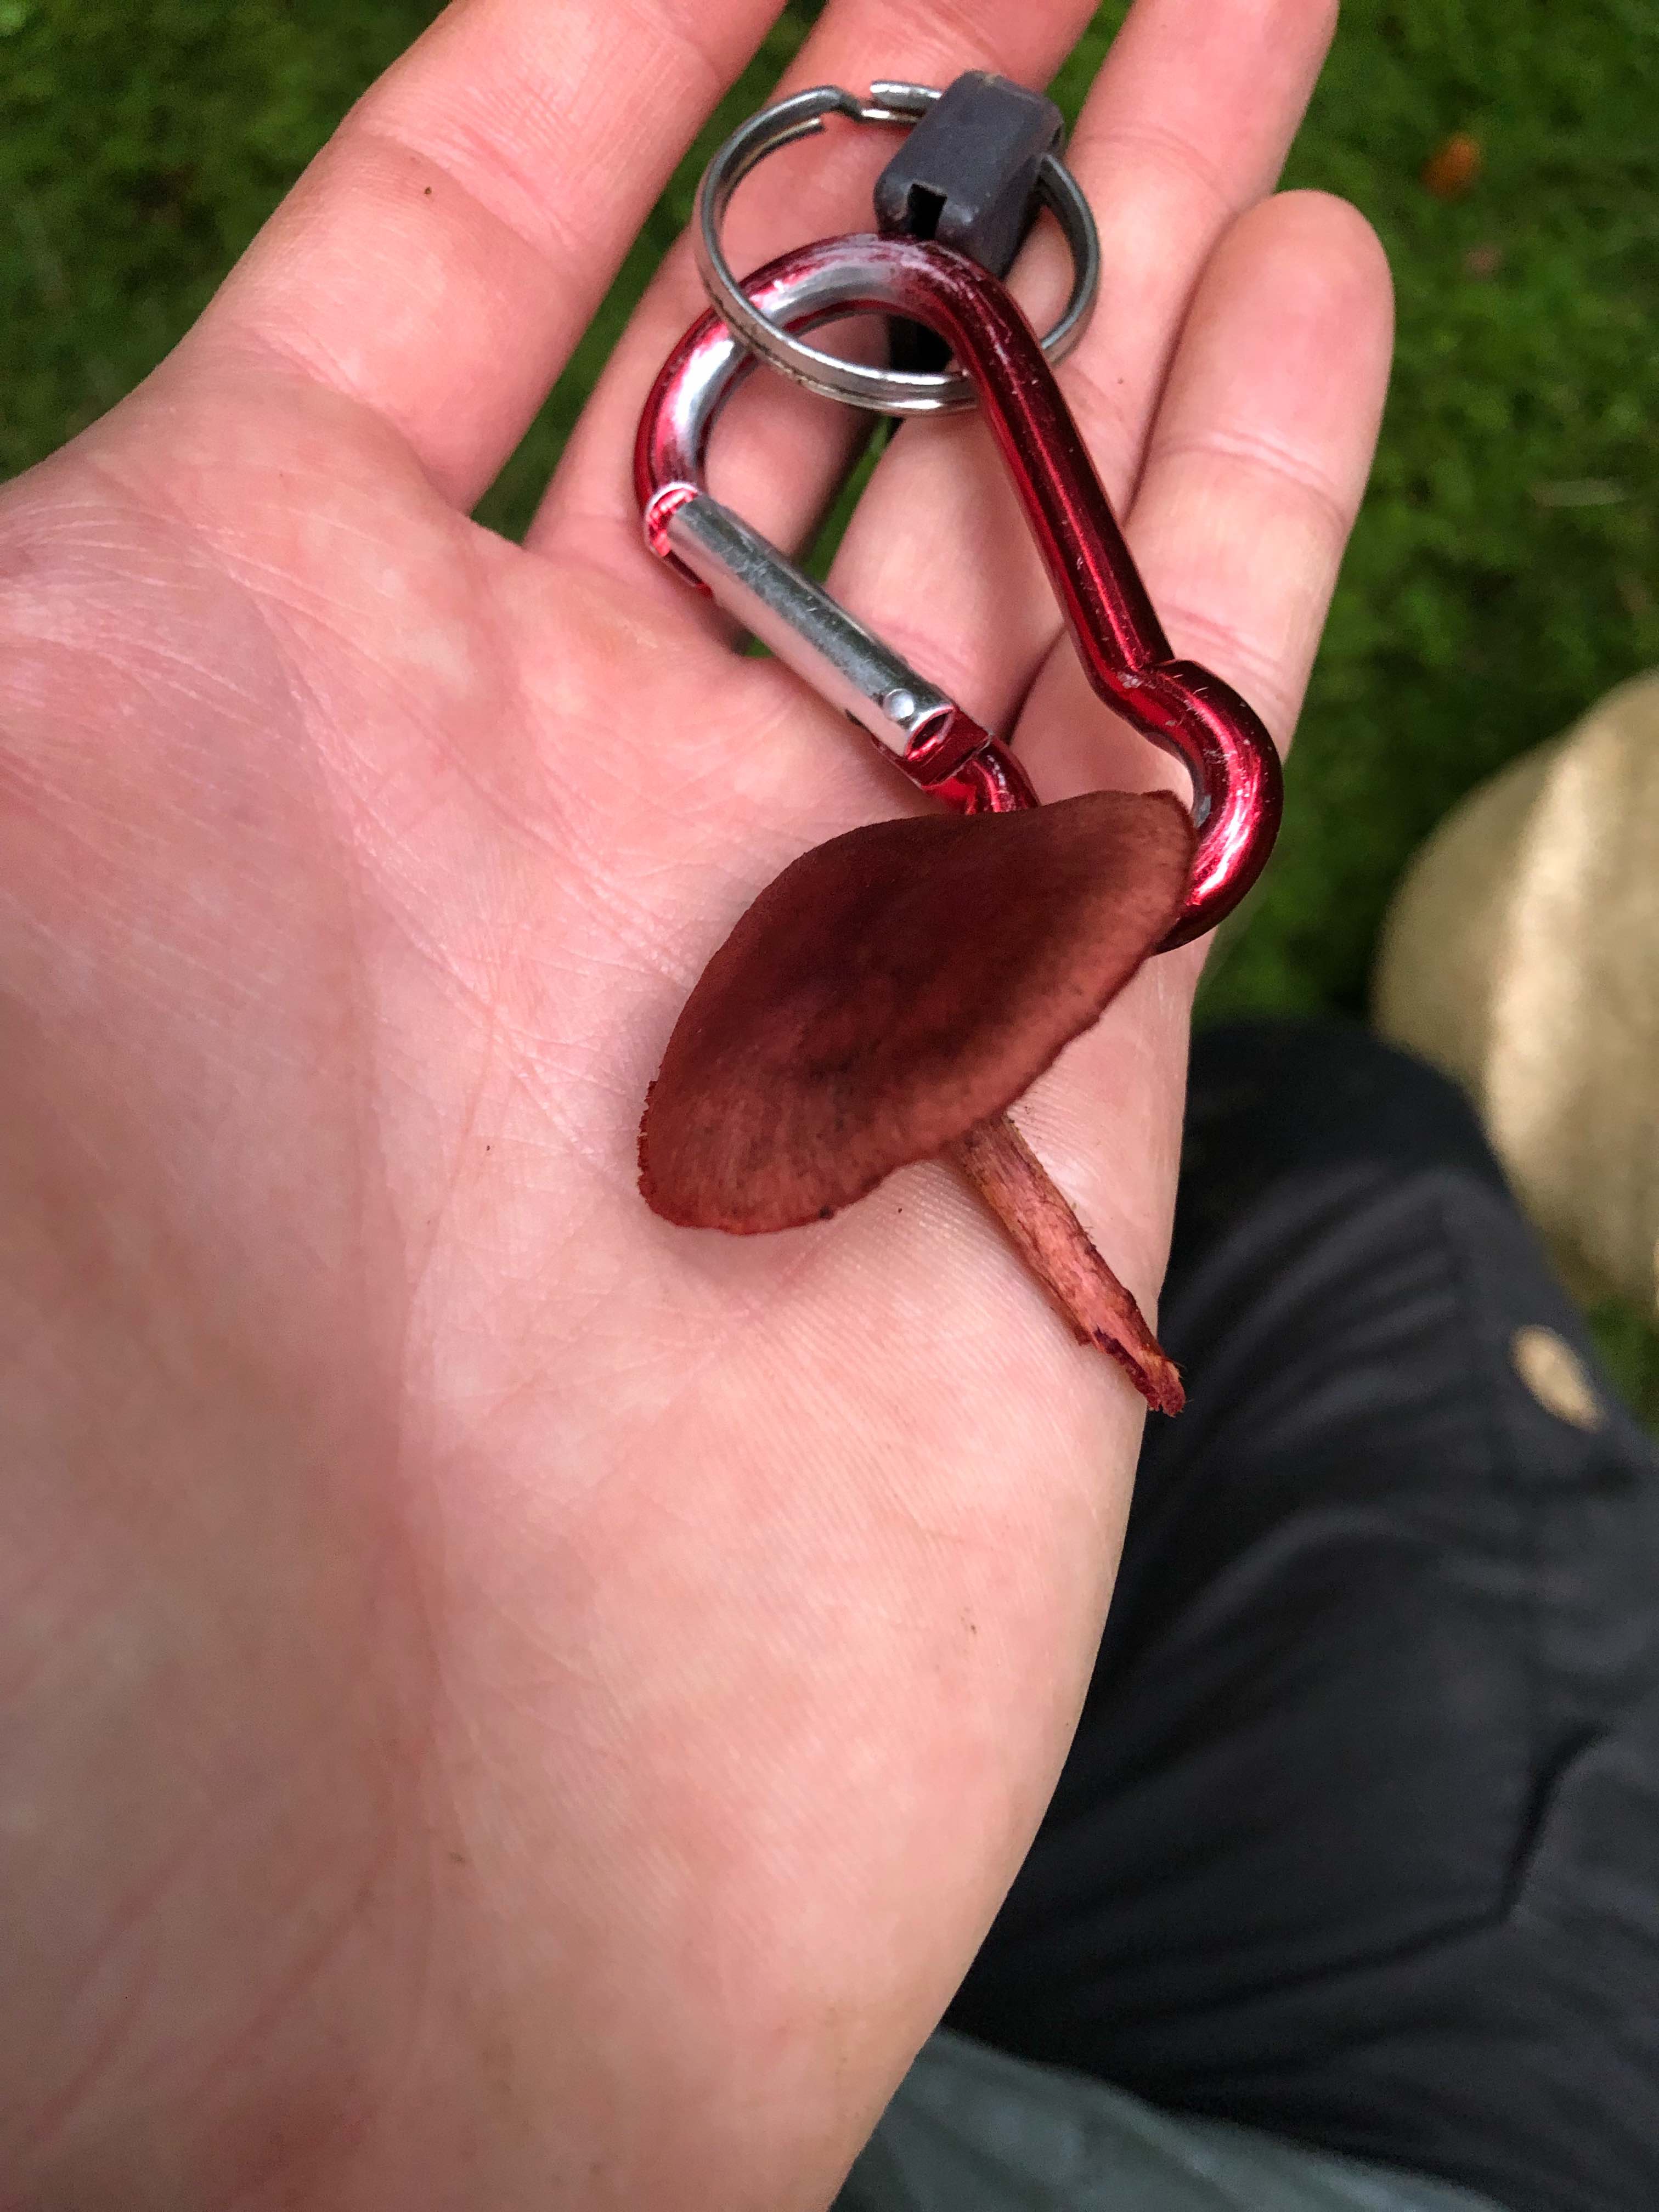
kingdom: Fungi
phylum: Basidiomycota
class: Agaricomycetes
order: Agaricales
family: Cortinariaceae
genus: Cortinarius
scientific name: Cortinarius sanguineus
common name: blodrød slørhat
